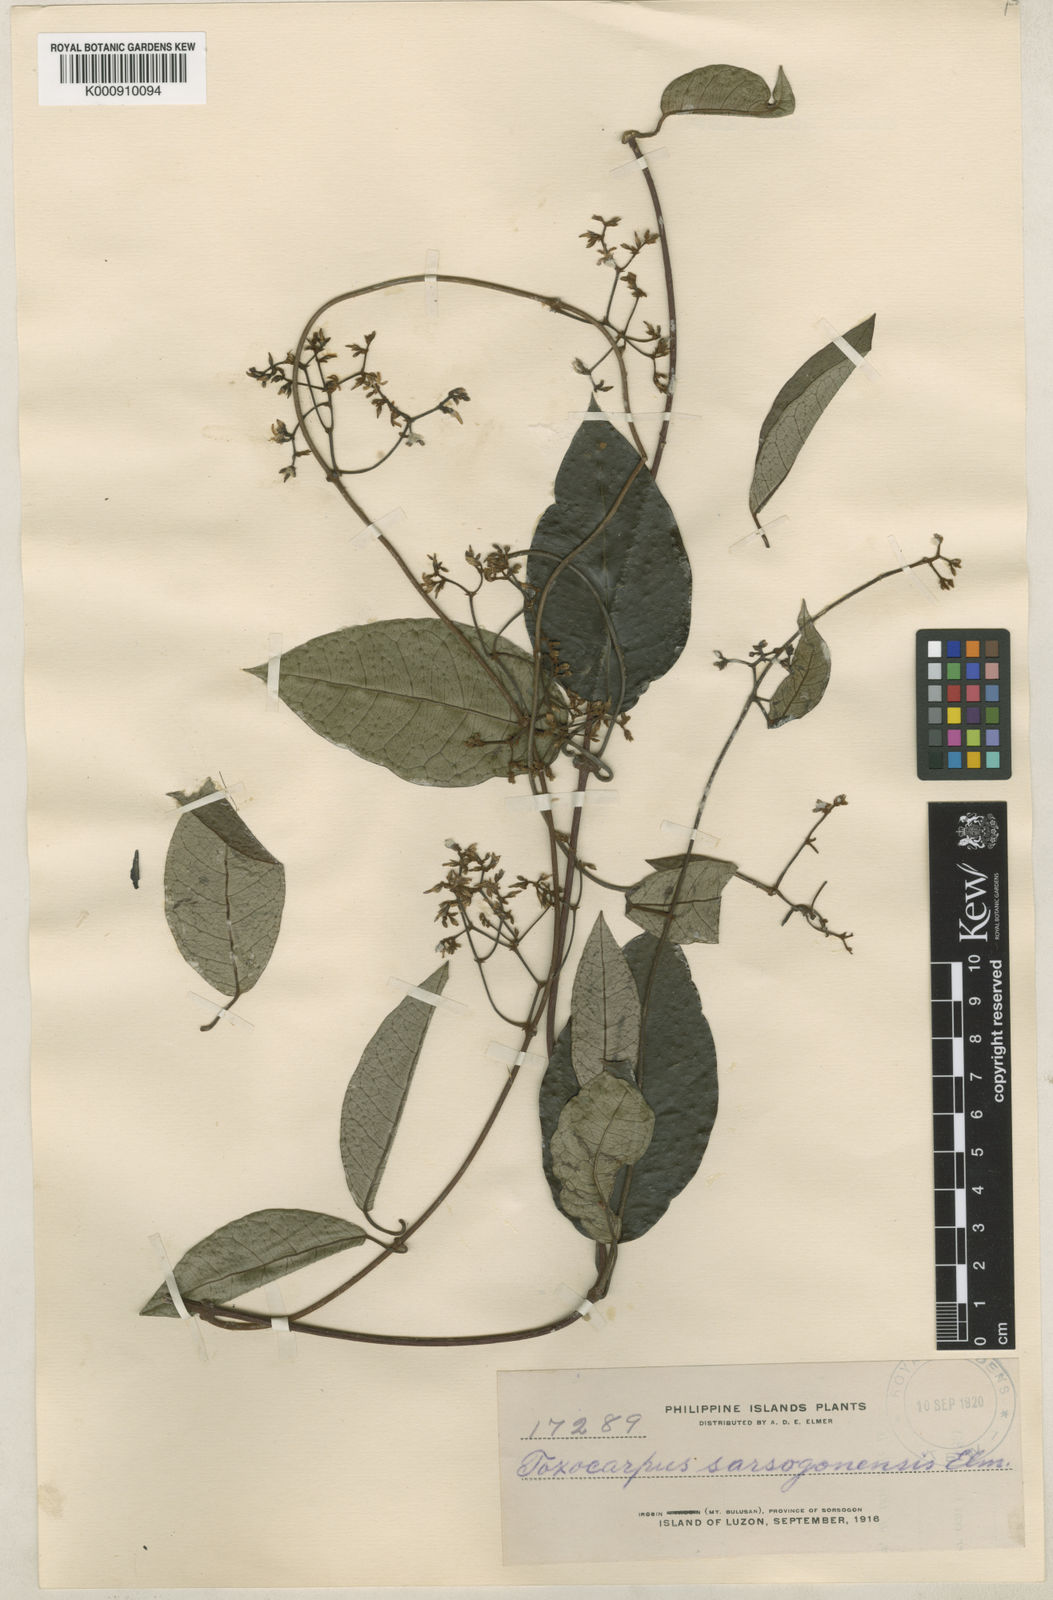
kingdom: Plantae
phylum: Tracheophyta
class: Magnoliopsida
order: Gentianales
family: Apocynaceae
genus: Toxocarpus
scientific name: Toxocarpus
